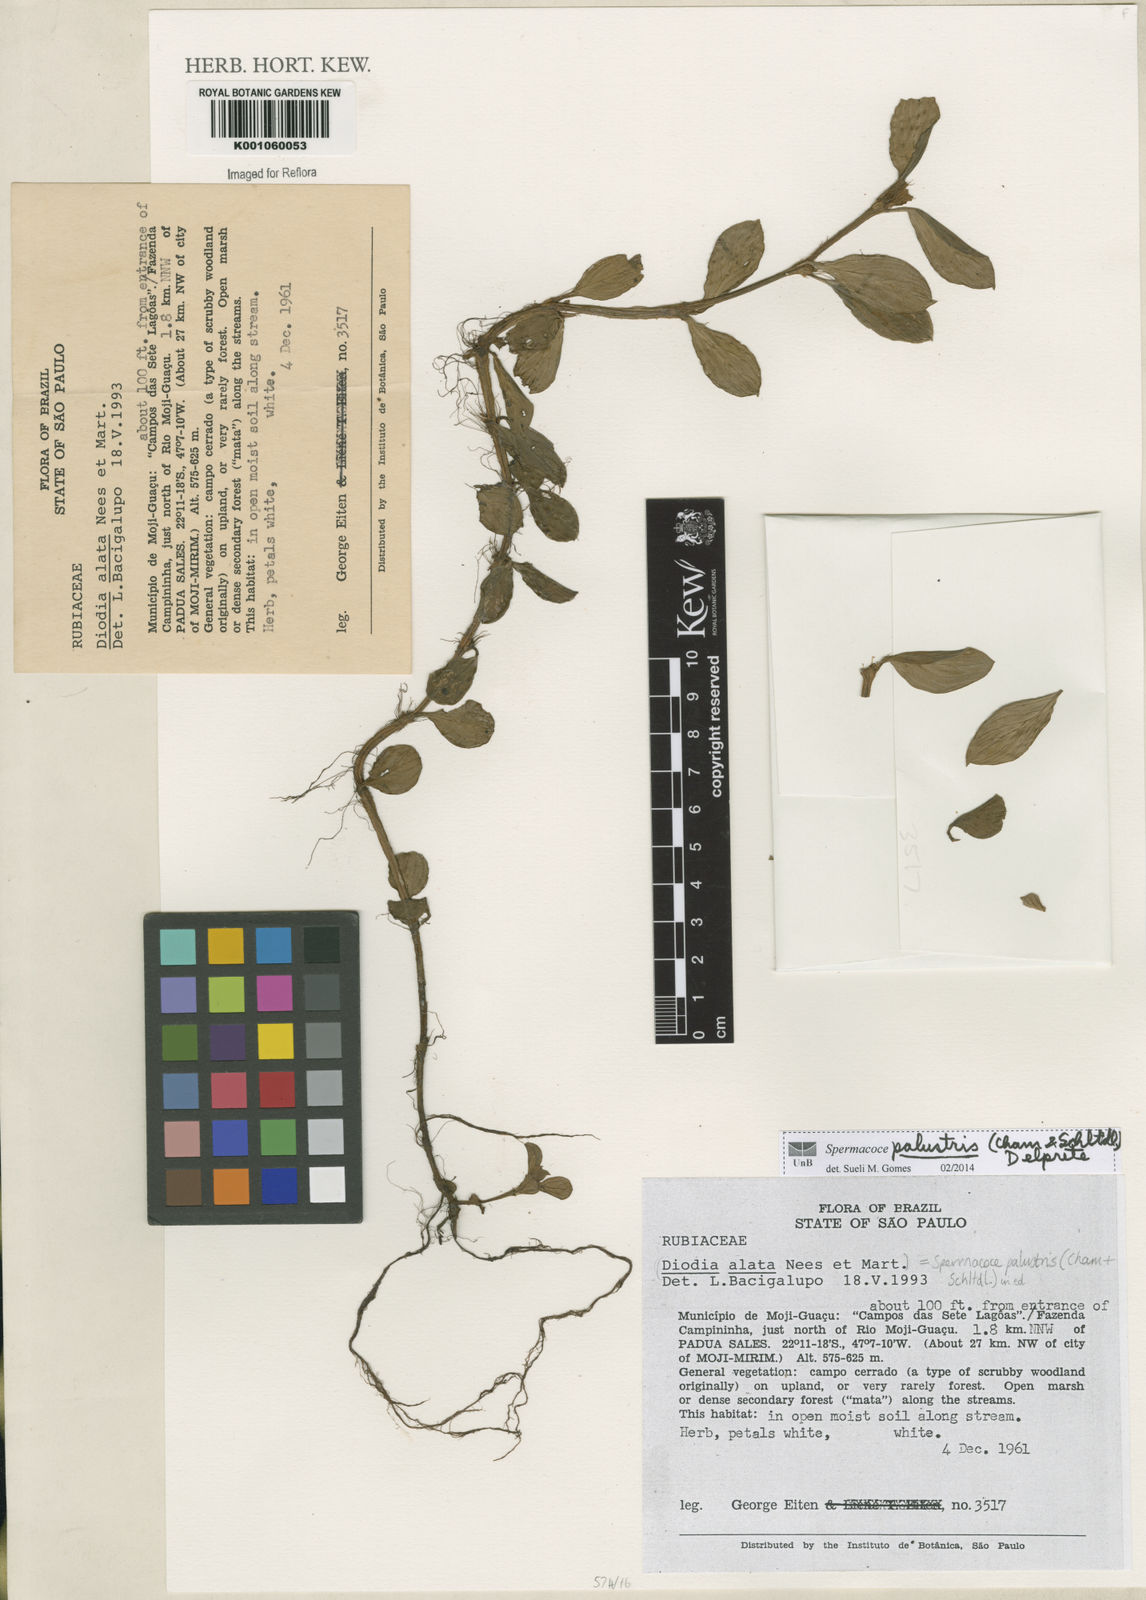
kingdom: Plantae
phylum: Tracheophyta
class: Magnoliopsida
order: Gentianales
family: Rubiaceae
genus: Galianthe
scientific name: Galianthe palustris
